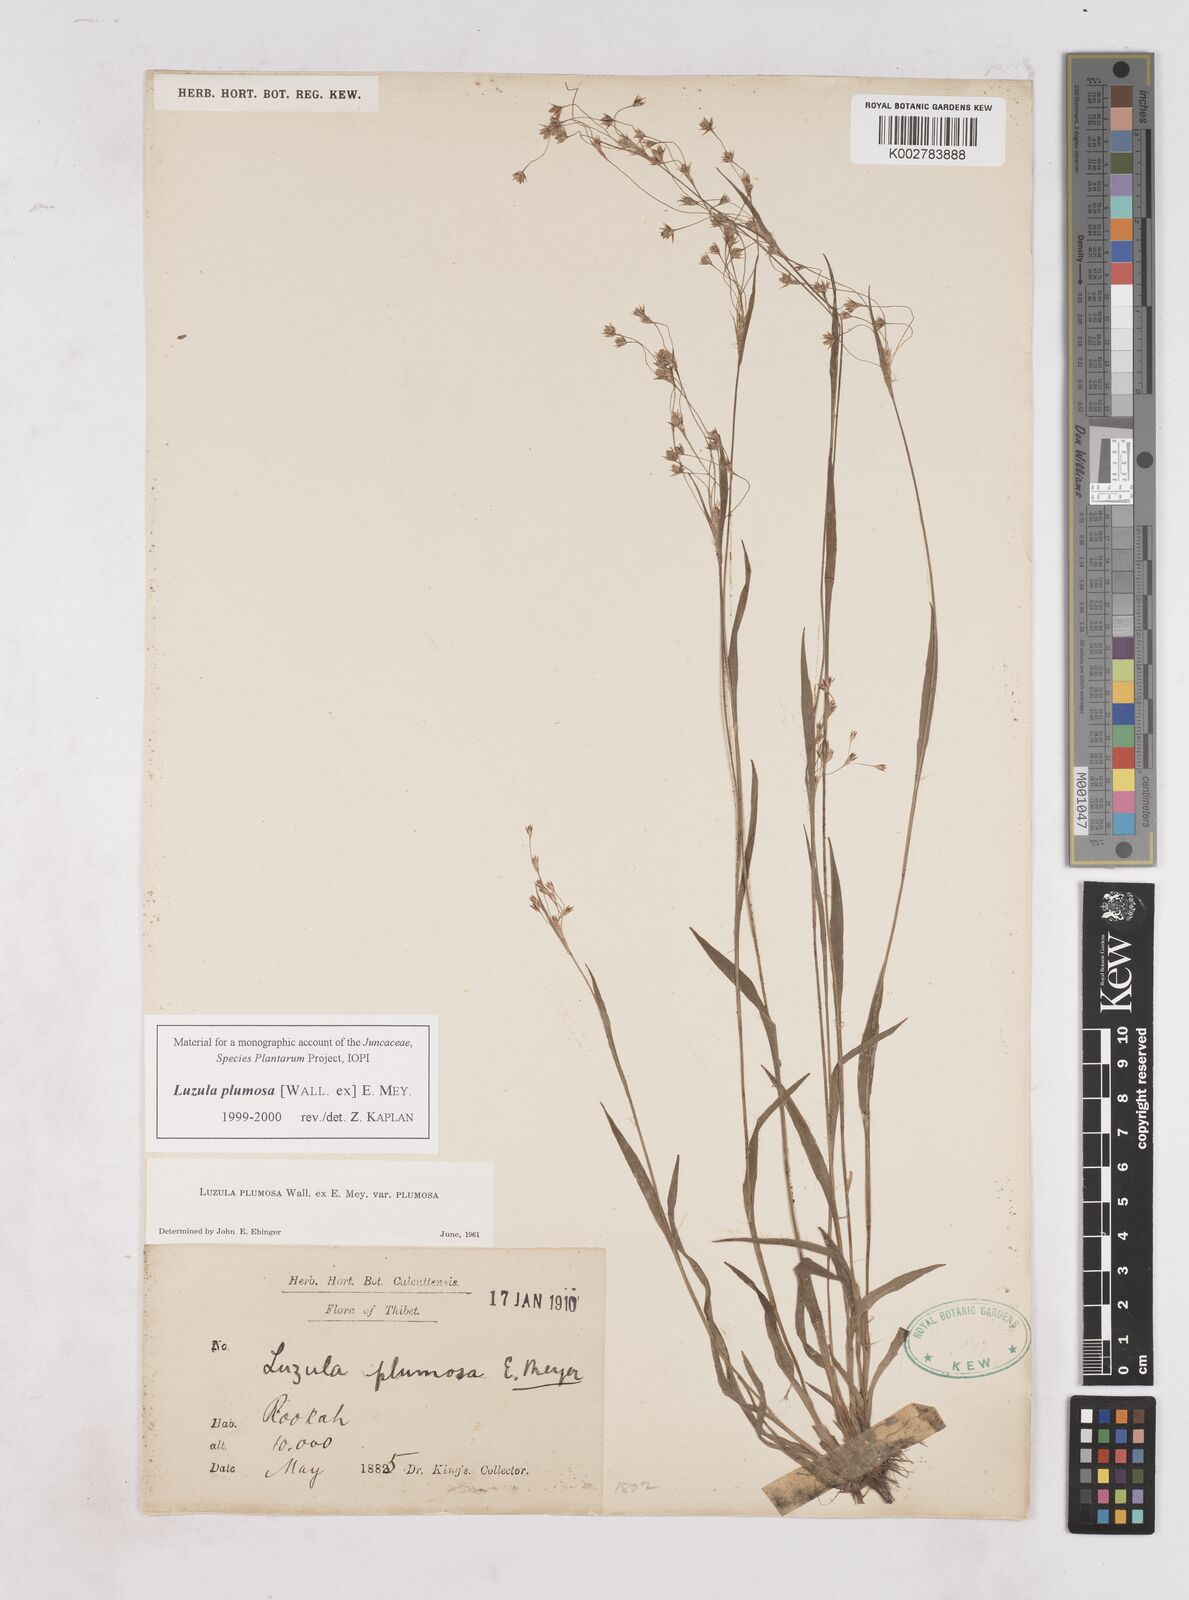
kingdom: Plantae
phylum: Tracheophyta
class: Liliopsida
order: Poales
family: Juncaceae
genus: Luzula
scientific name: Luzula plumosa
